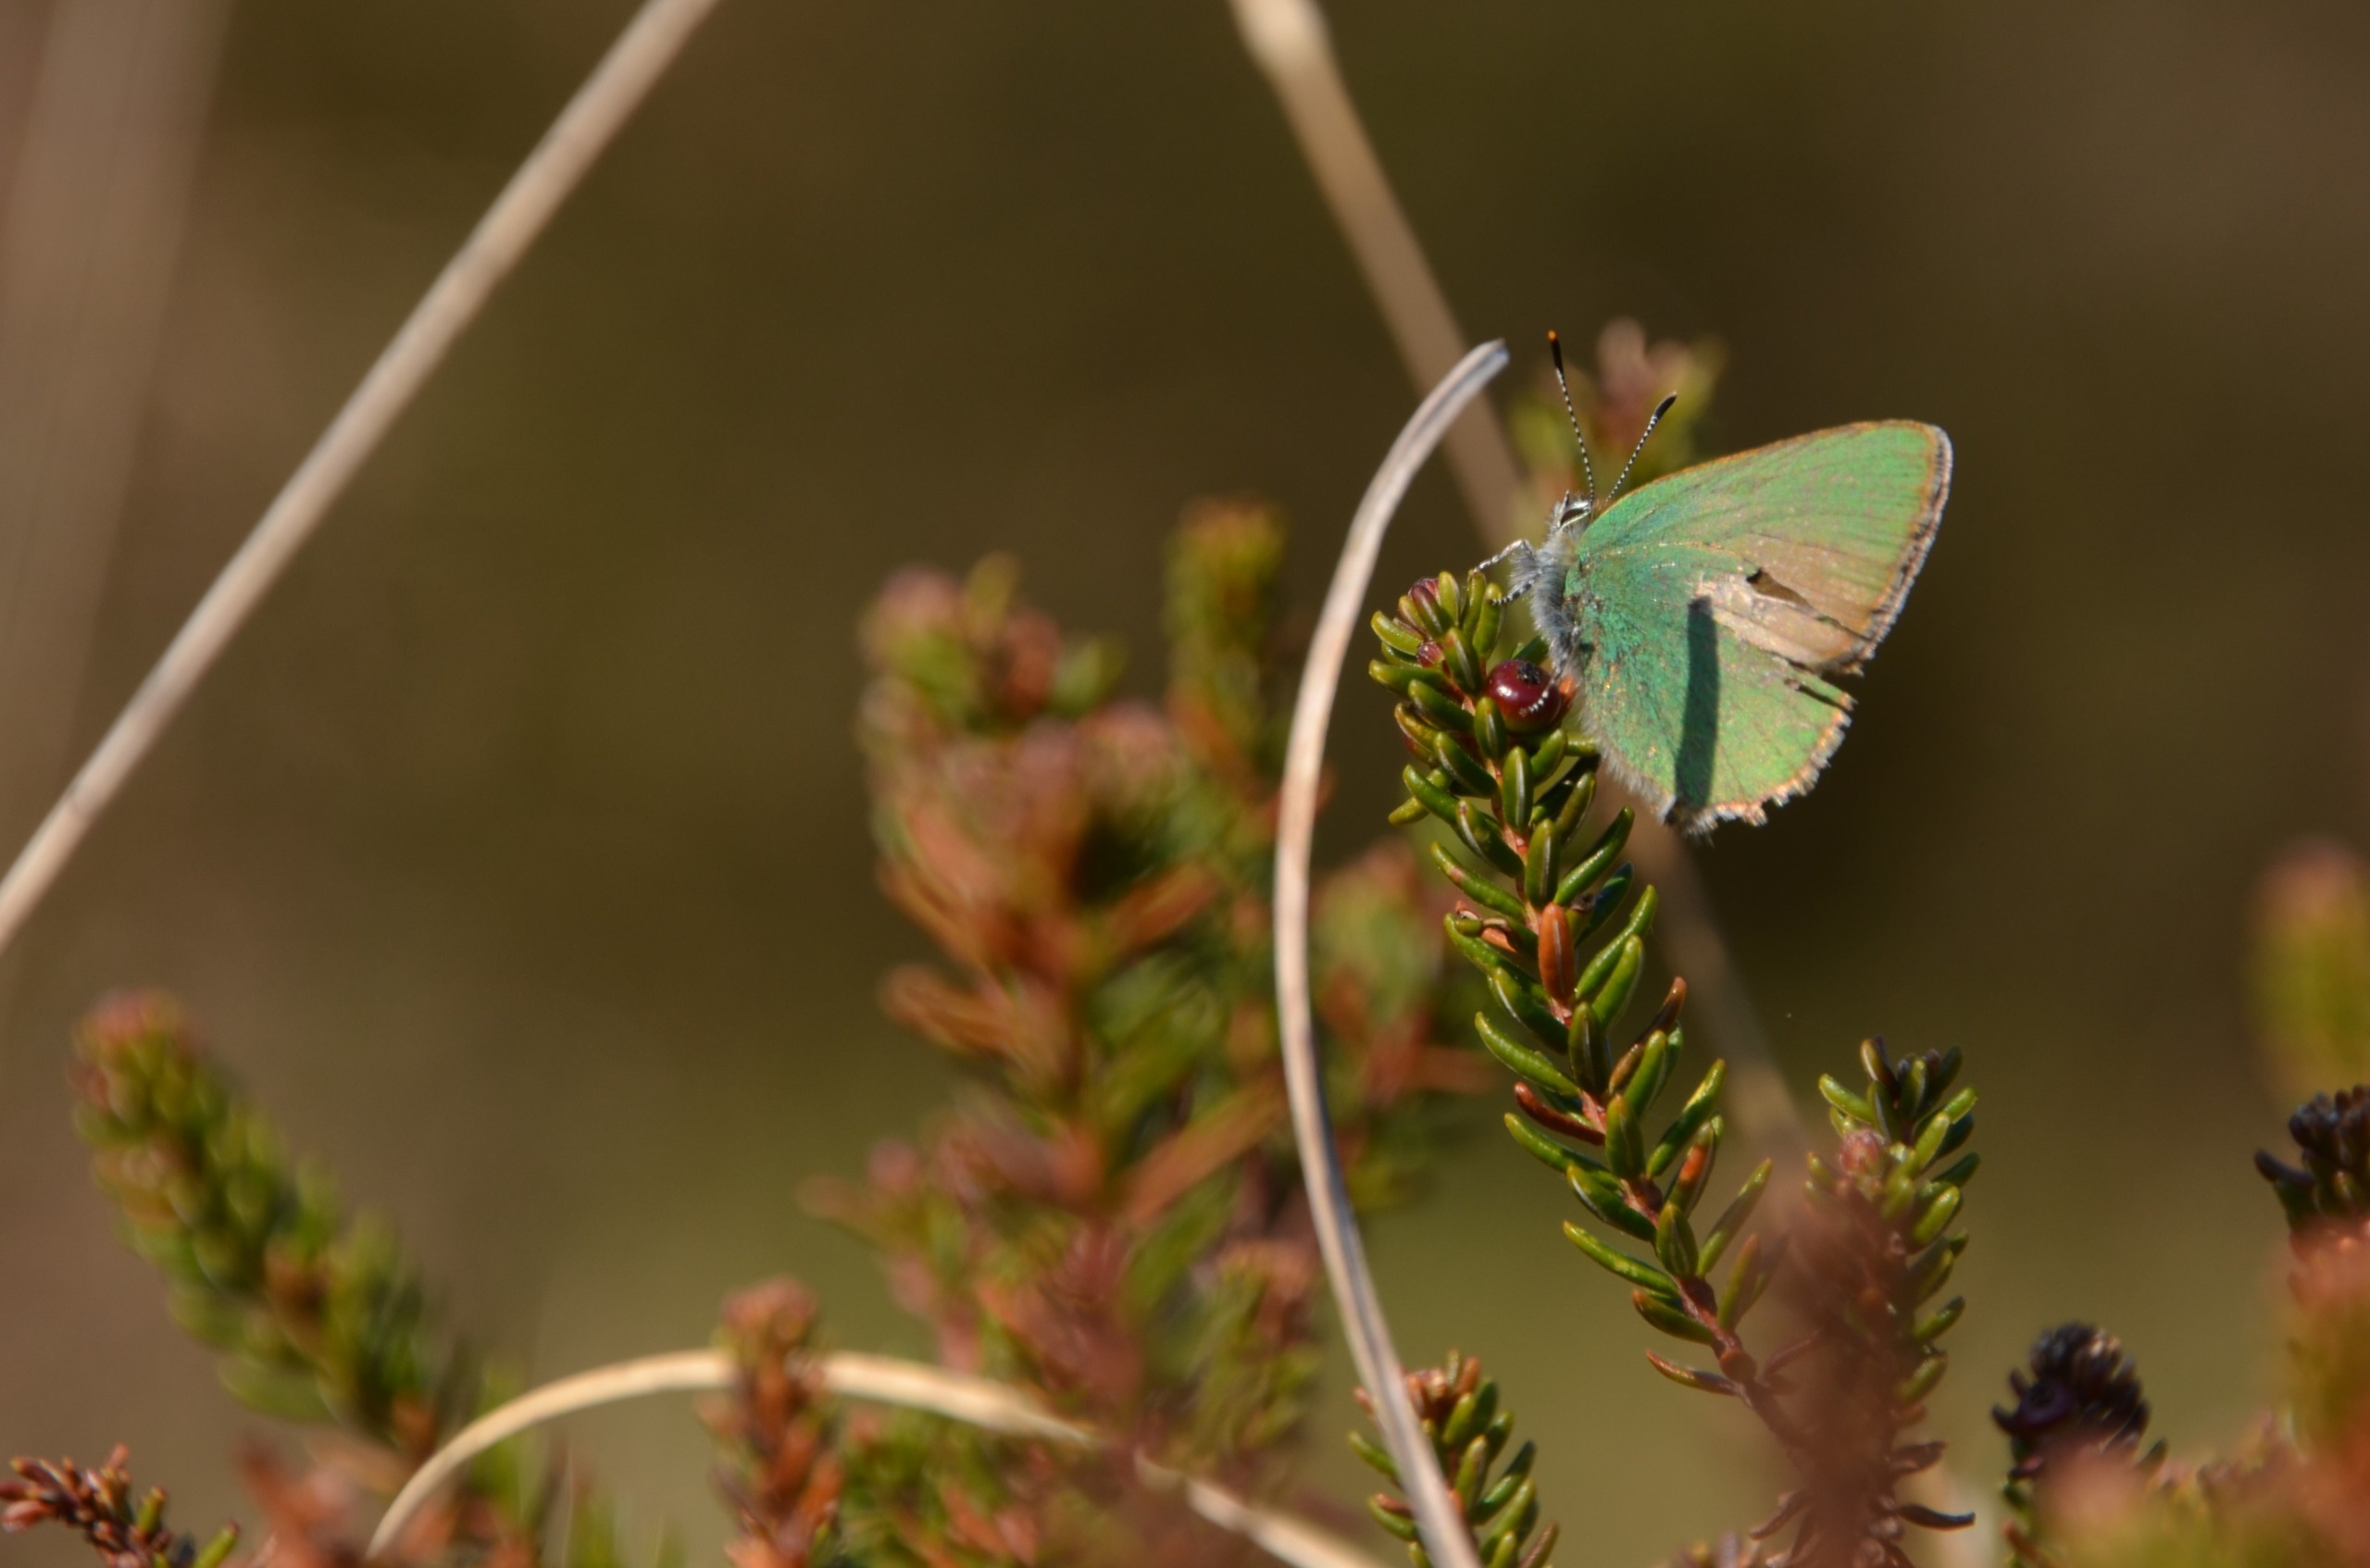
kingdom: Animalia
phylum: Arthropoda
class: Insecta
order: Lepidoptera
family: Lycaenidae
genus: Callophrys
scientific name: Callophrys rubi
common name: Grøn busksommerfugl
